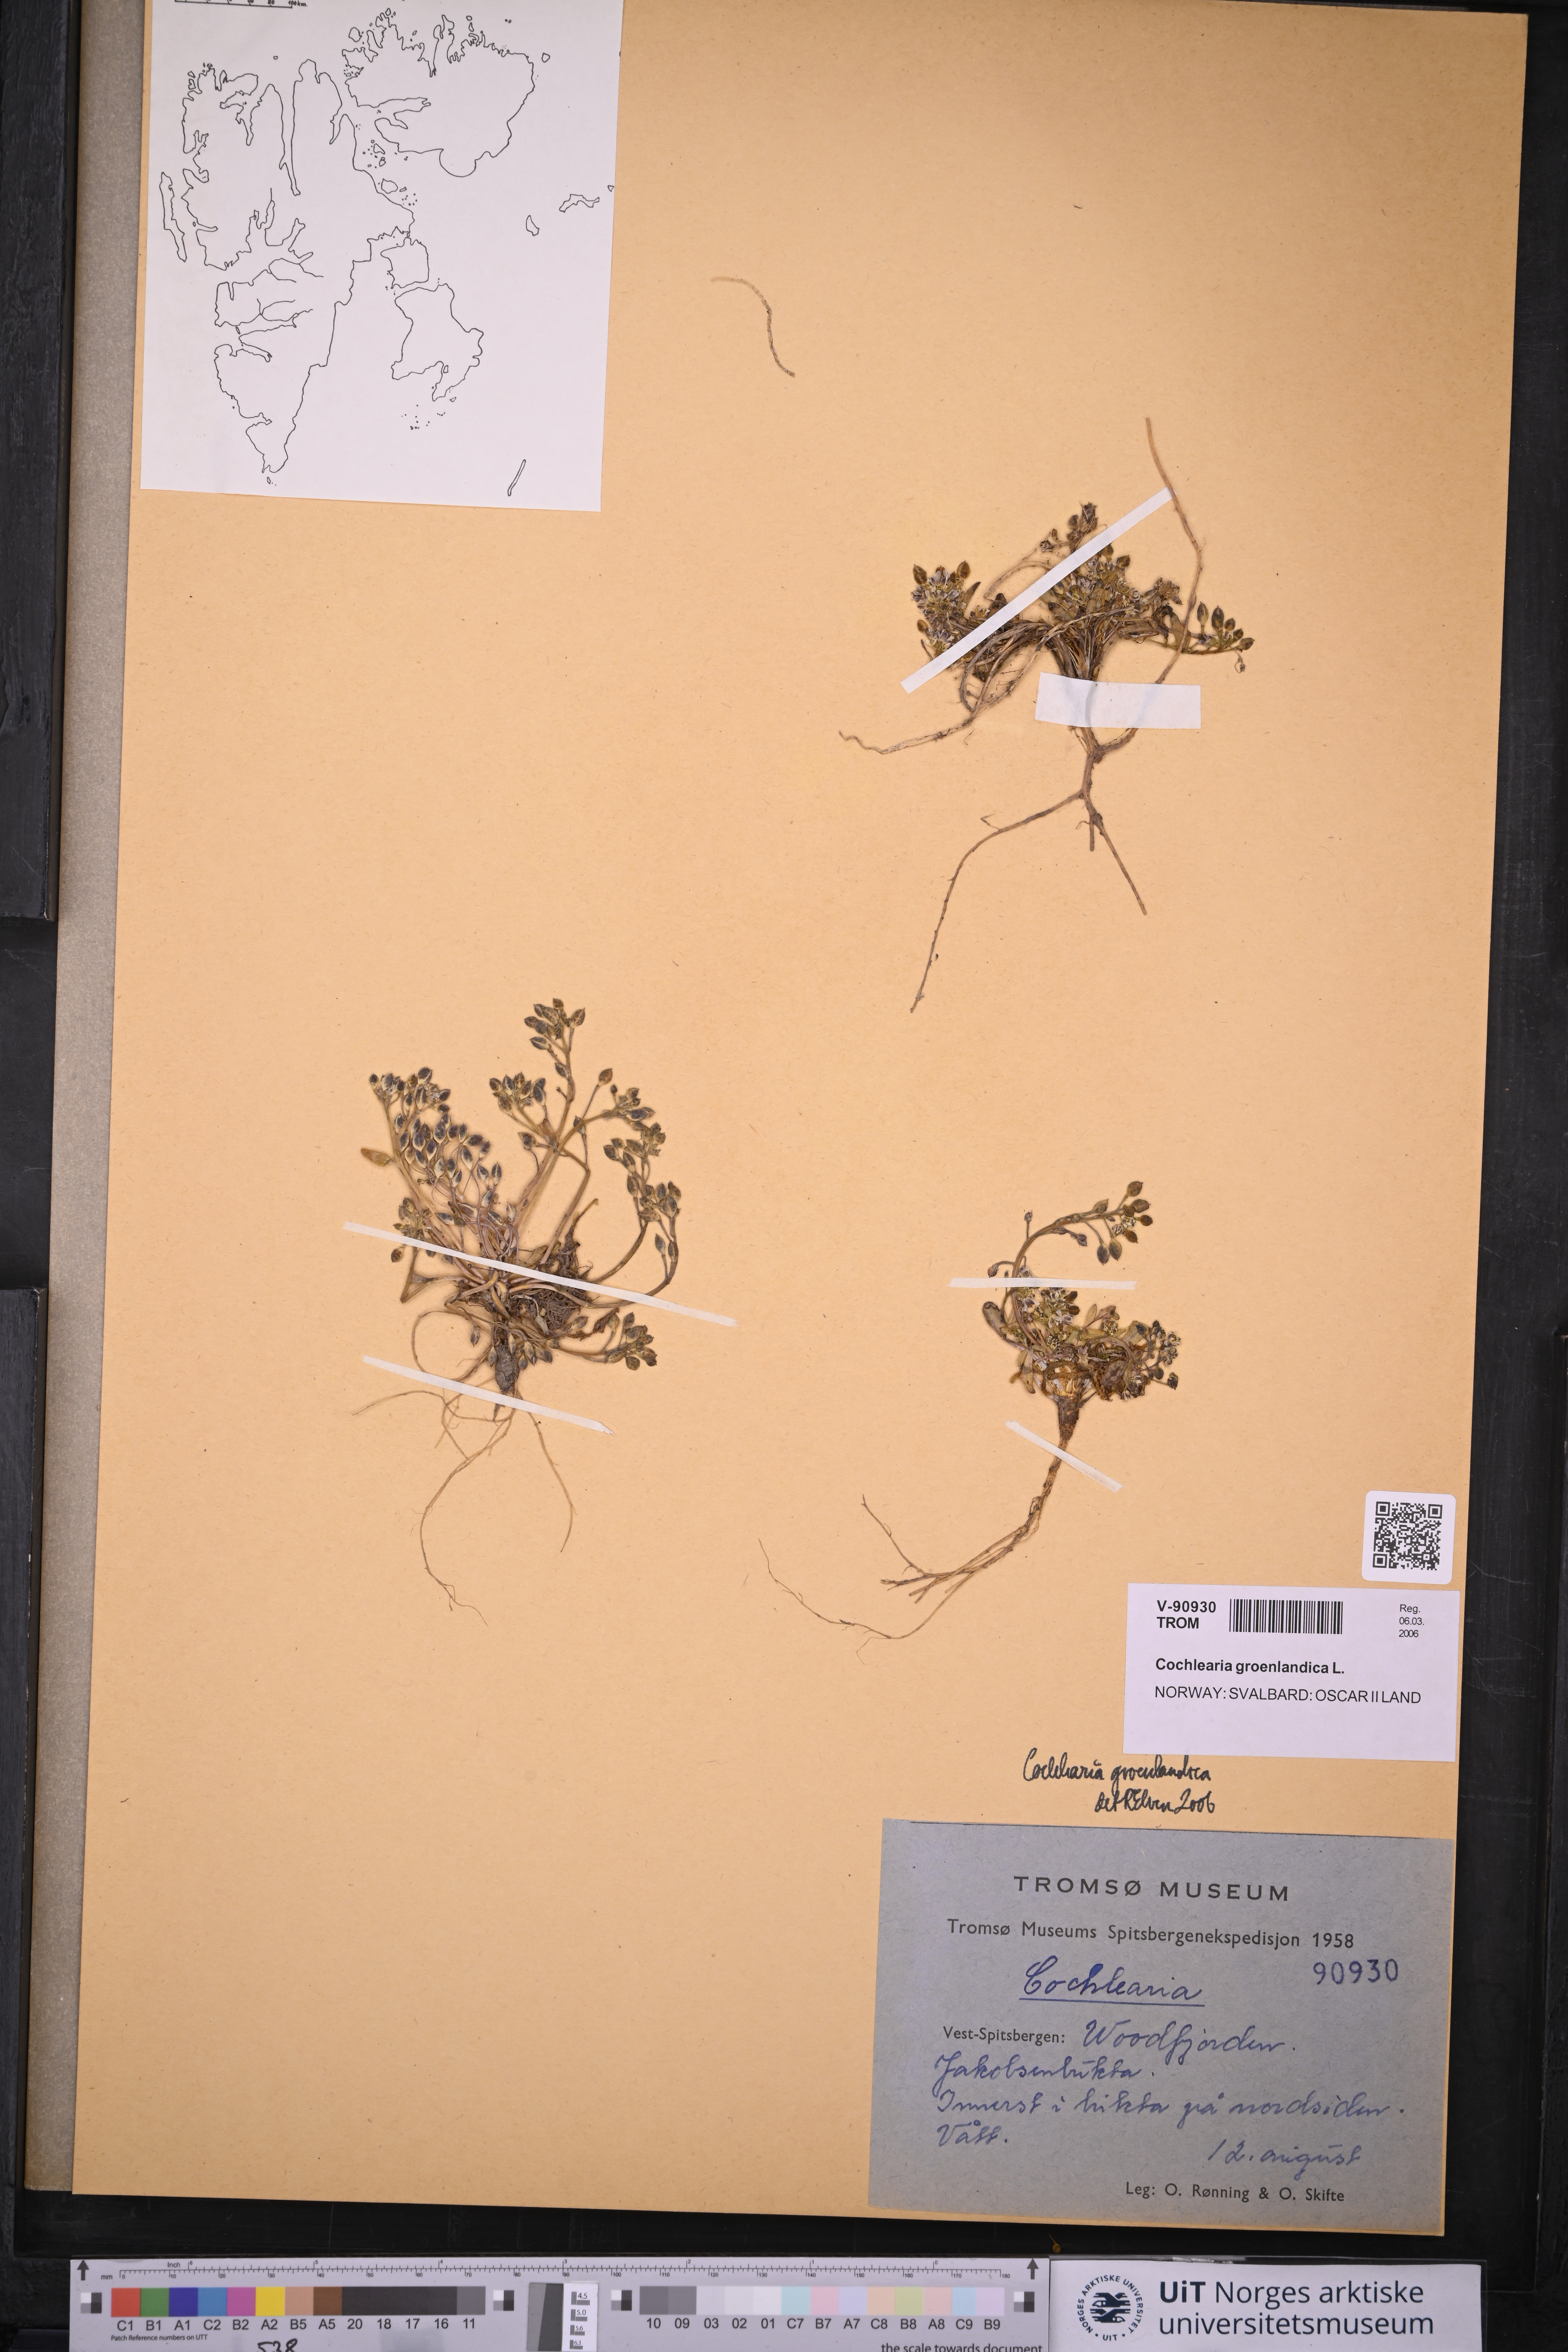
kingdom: Plantae
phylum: Tracheophyta
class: Magnoliopsida
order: Brassicales
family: Brassicaceae
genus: Cochlearia
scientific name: Cochlearia groenlandica
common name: Danish scurvygrass
